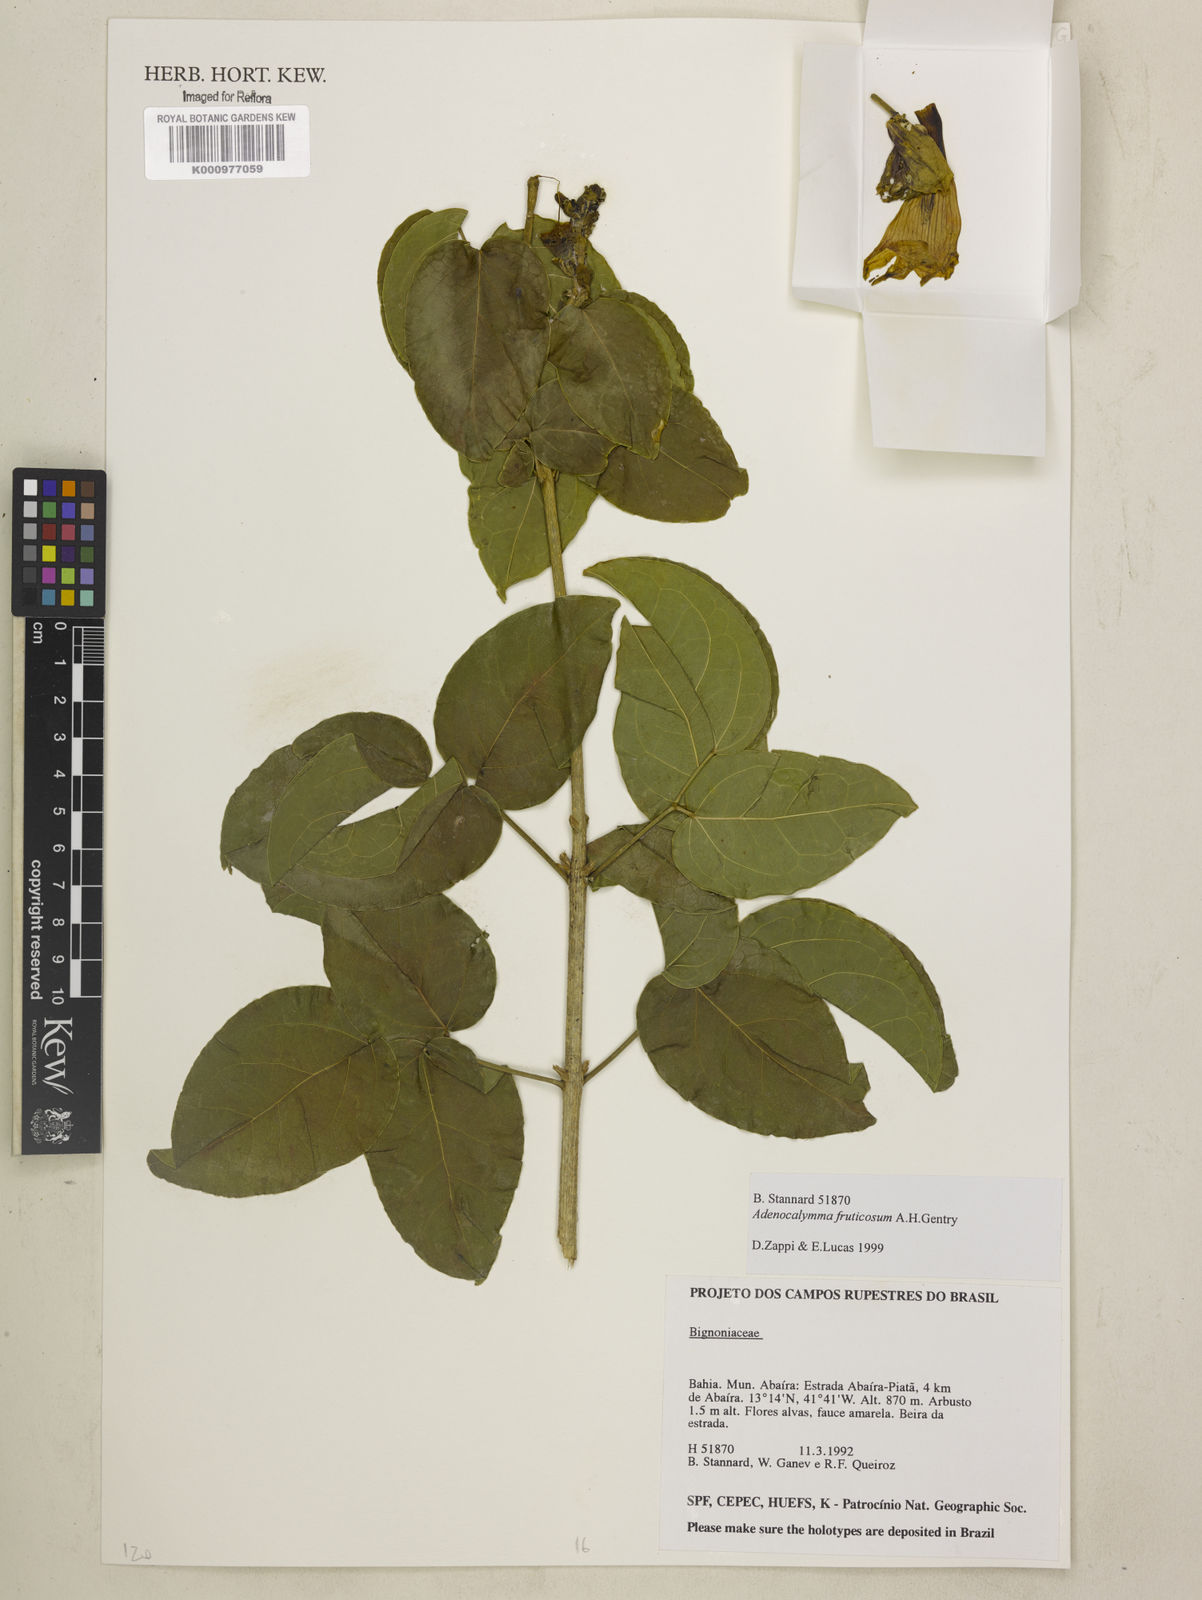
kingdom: Plantae
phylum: Tracheophyta
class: Magnoliopsida
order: Lamiales
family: Bignoniaceae
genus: Adenocalymma
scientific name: Adenocalymma fruticosum
